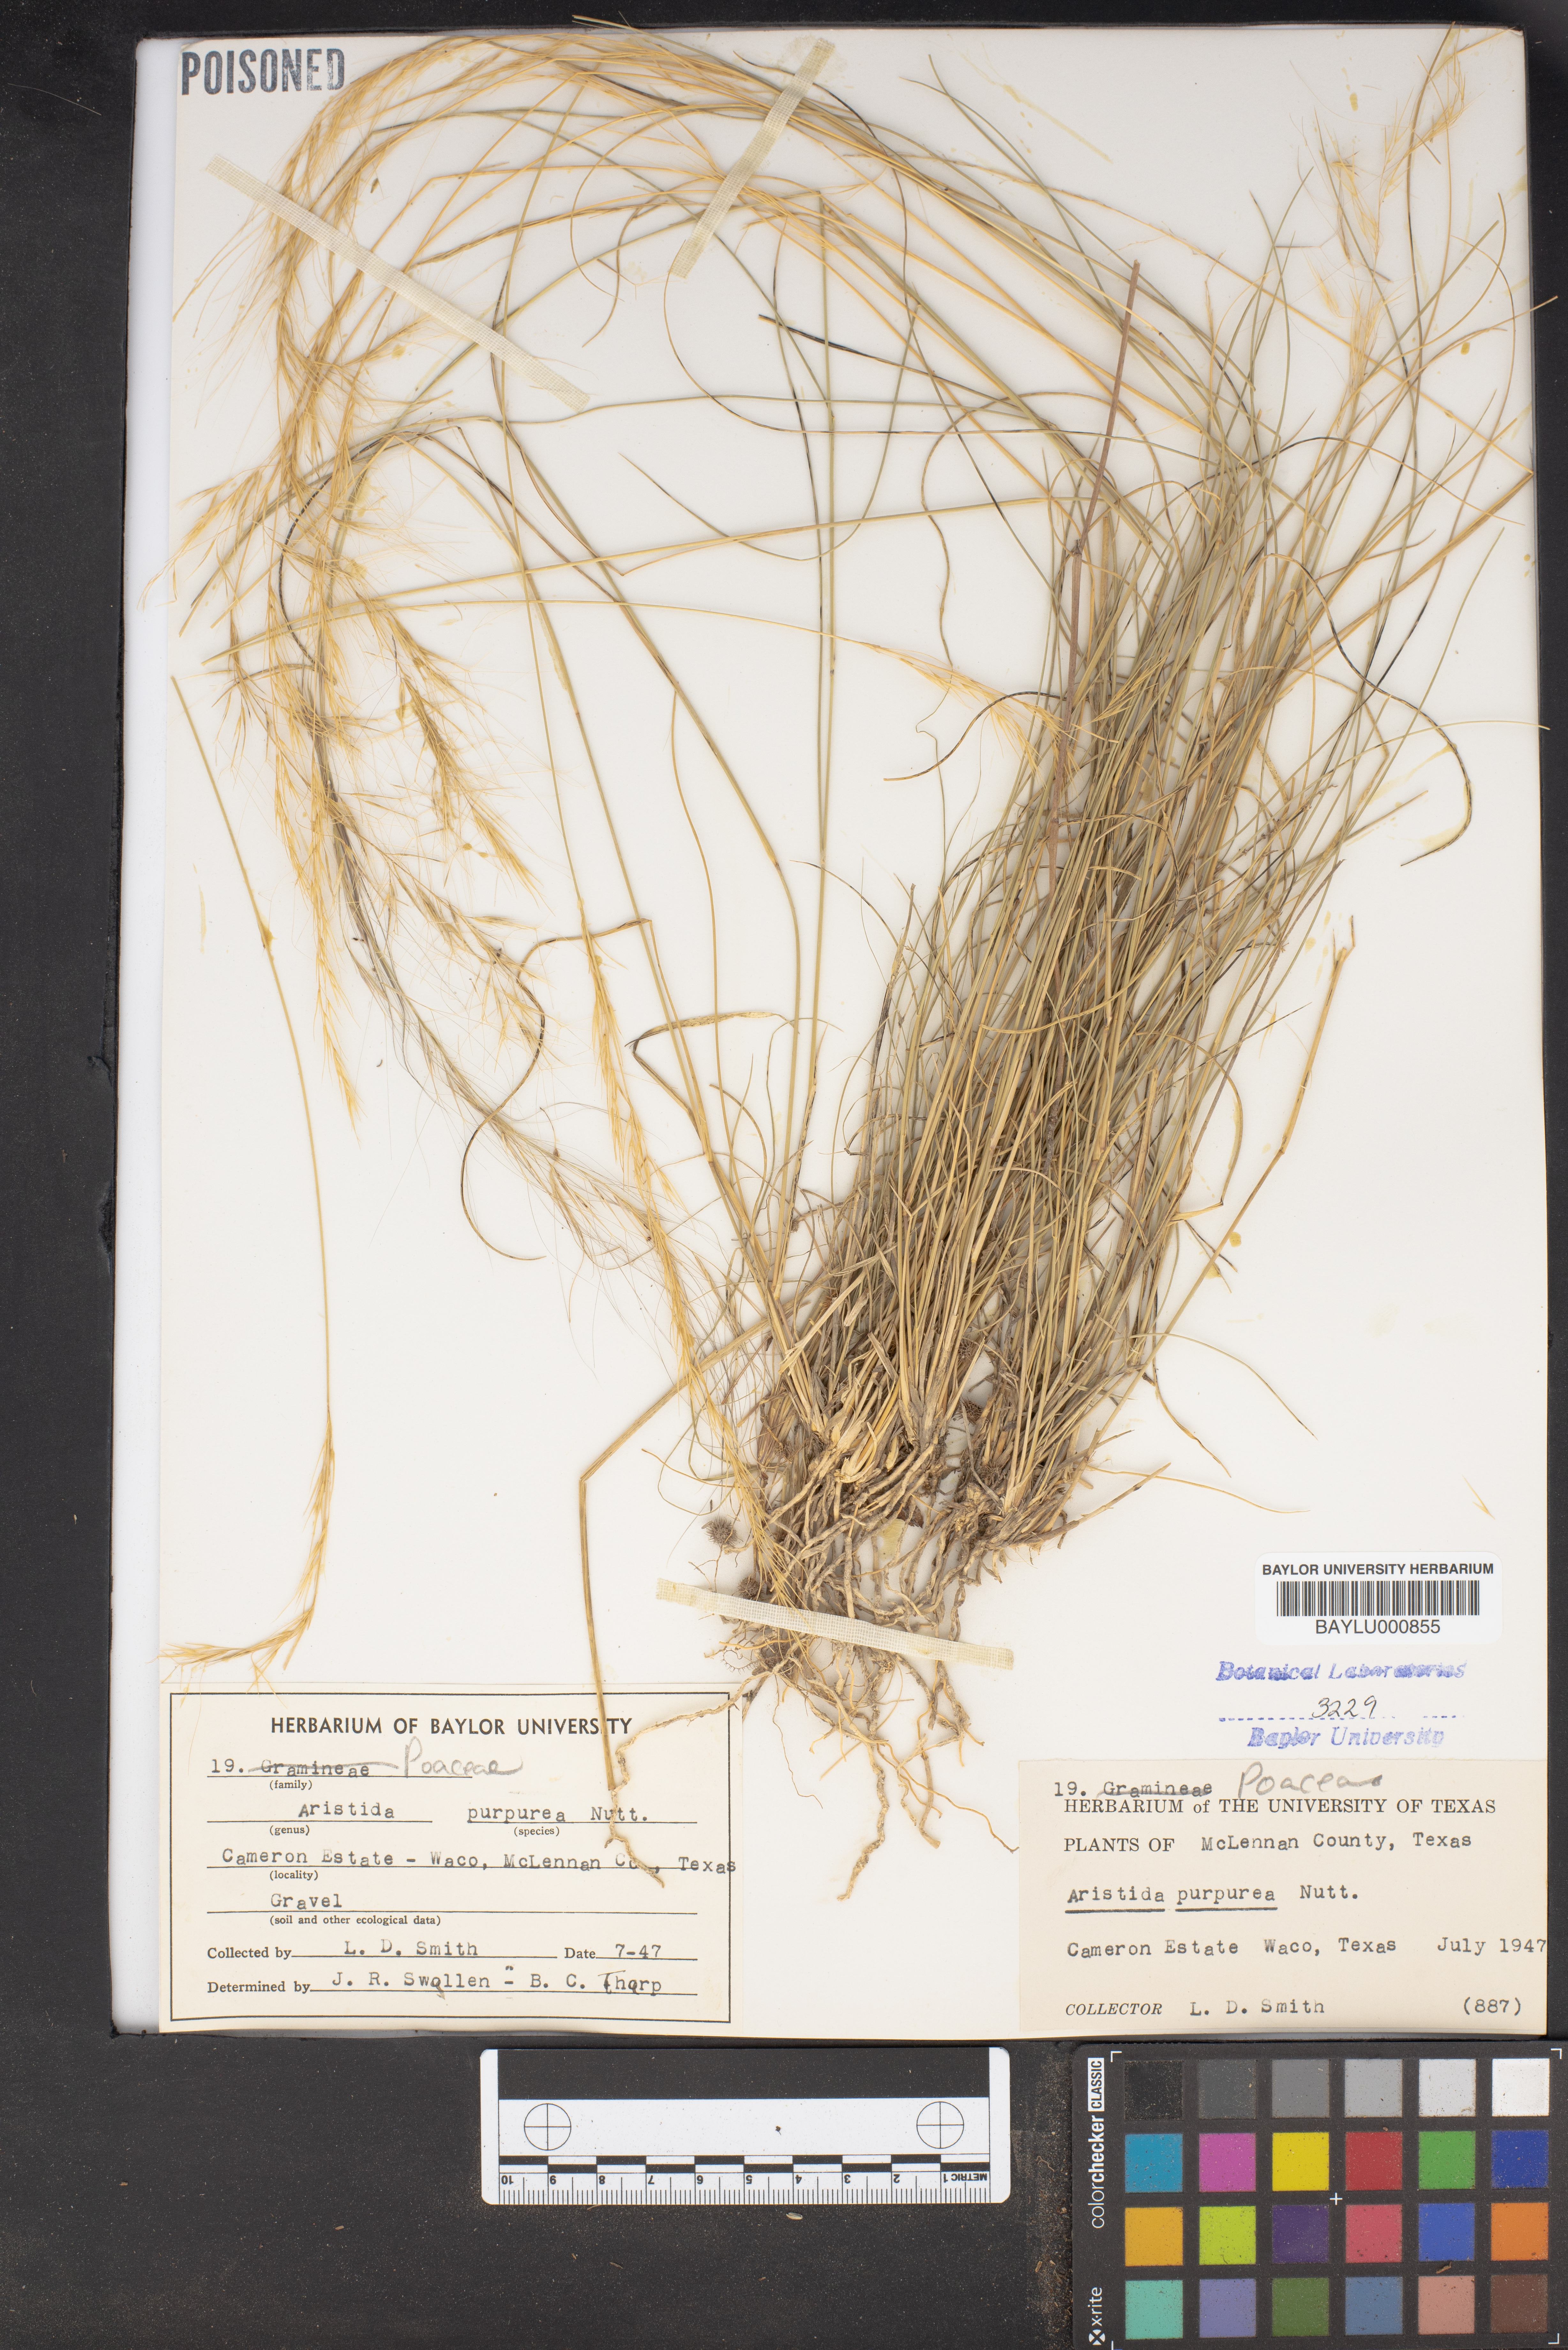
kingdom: Plantae
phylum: Tracheophyta
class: Liliopsida
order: Poales
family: Poaceae
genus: Aristida
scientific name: Aristida purpurea
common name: Purple threeawn
